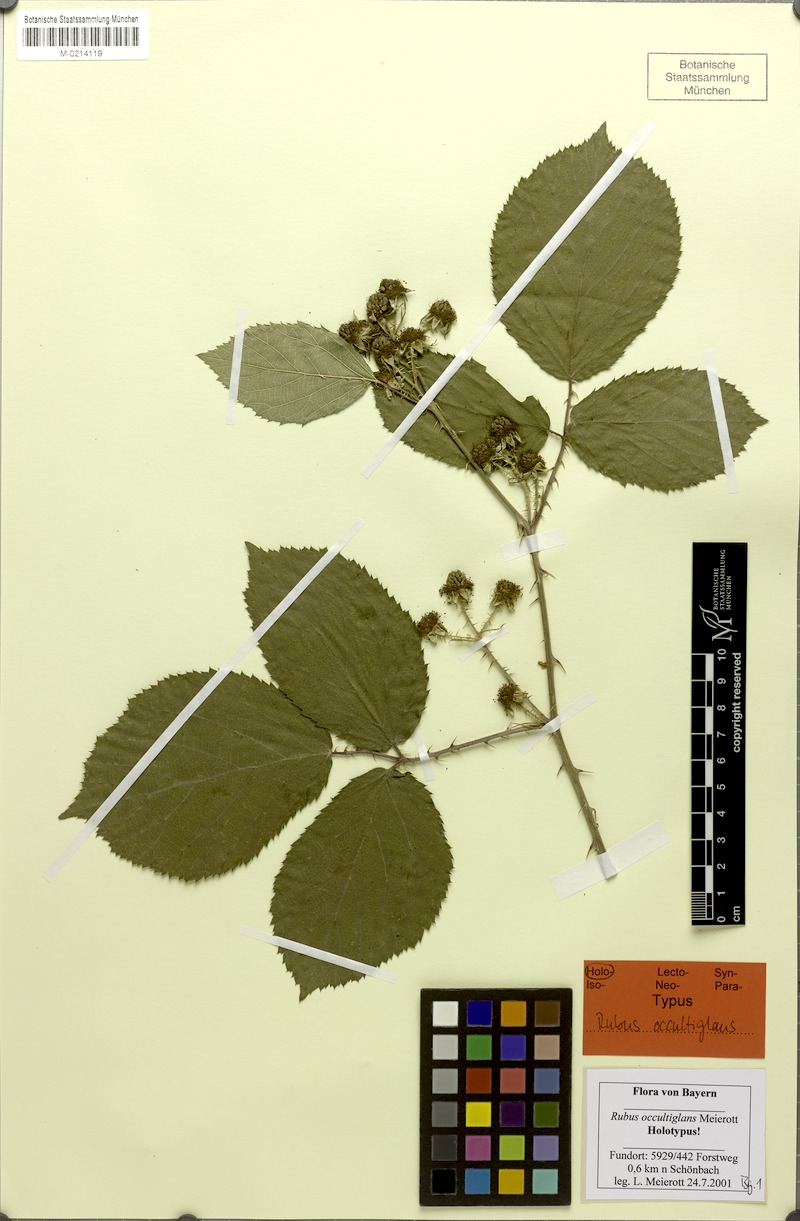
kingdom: Plantae
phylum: Tracheophyta
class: Magnoliopsida
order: Rosales
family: Rosaceae
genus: Rubus
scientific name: Rubus occultiglans
